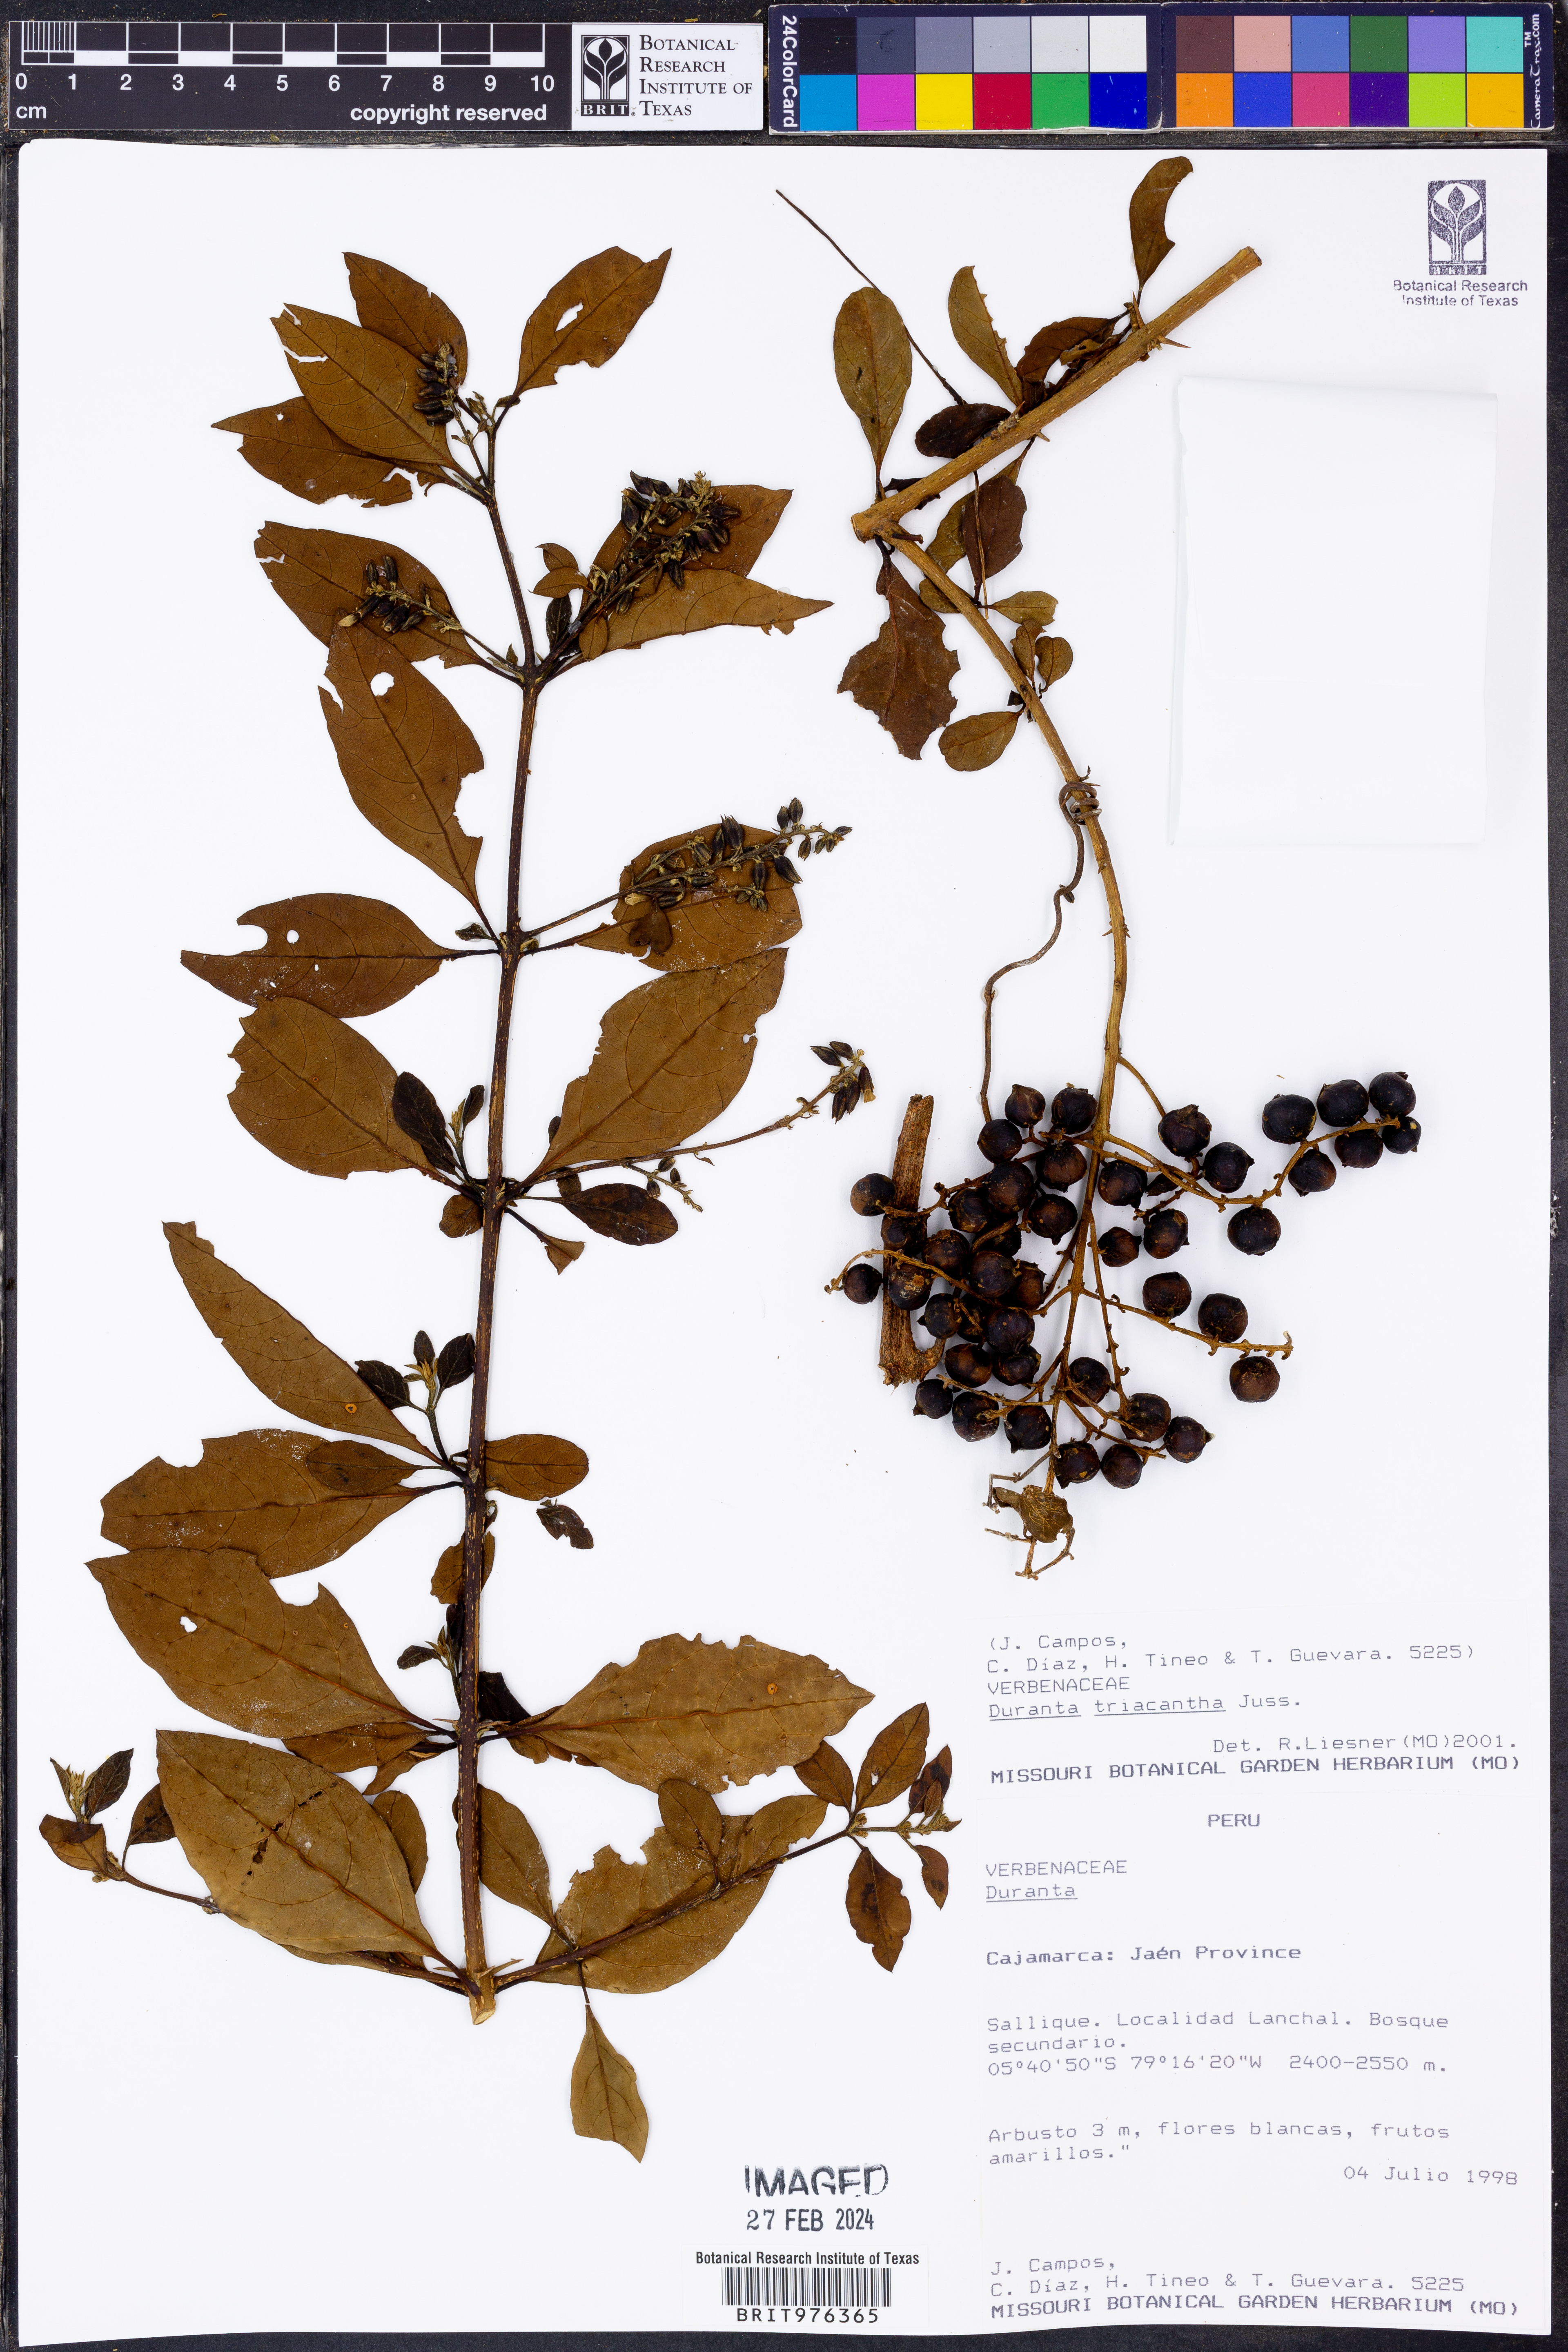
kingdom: Plantae
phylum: Tracheophyta
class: Magnoliopsida
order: Lamiales
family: Verbenaceae
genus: Duranta
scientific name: Duranta
